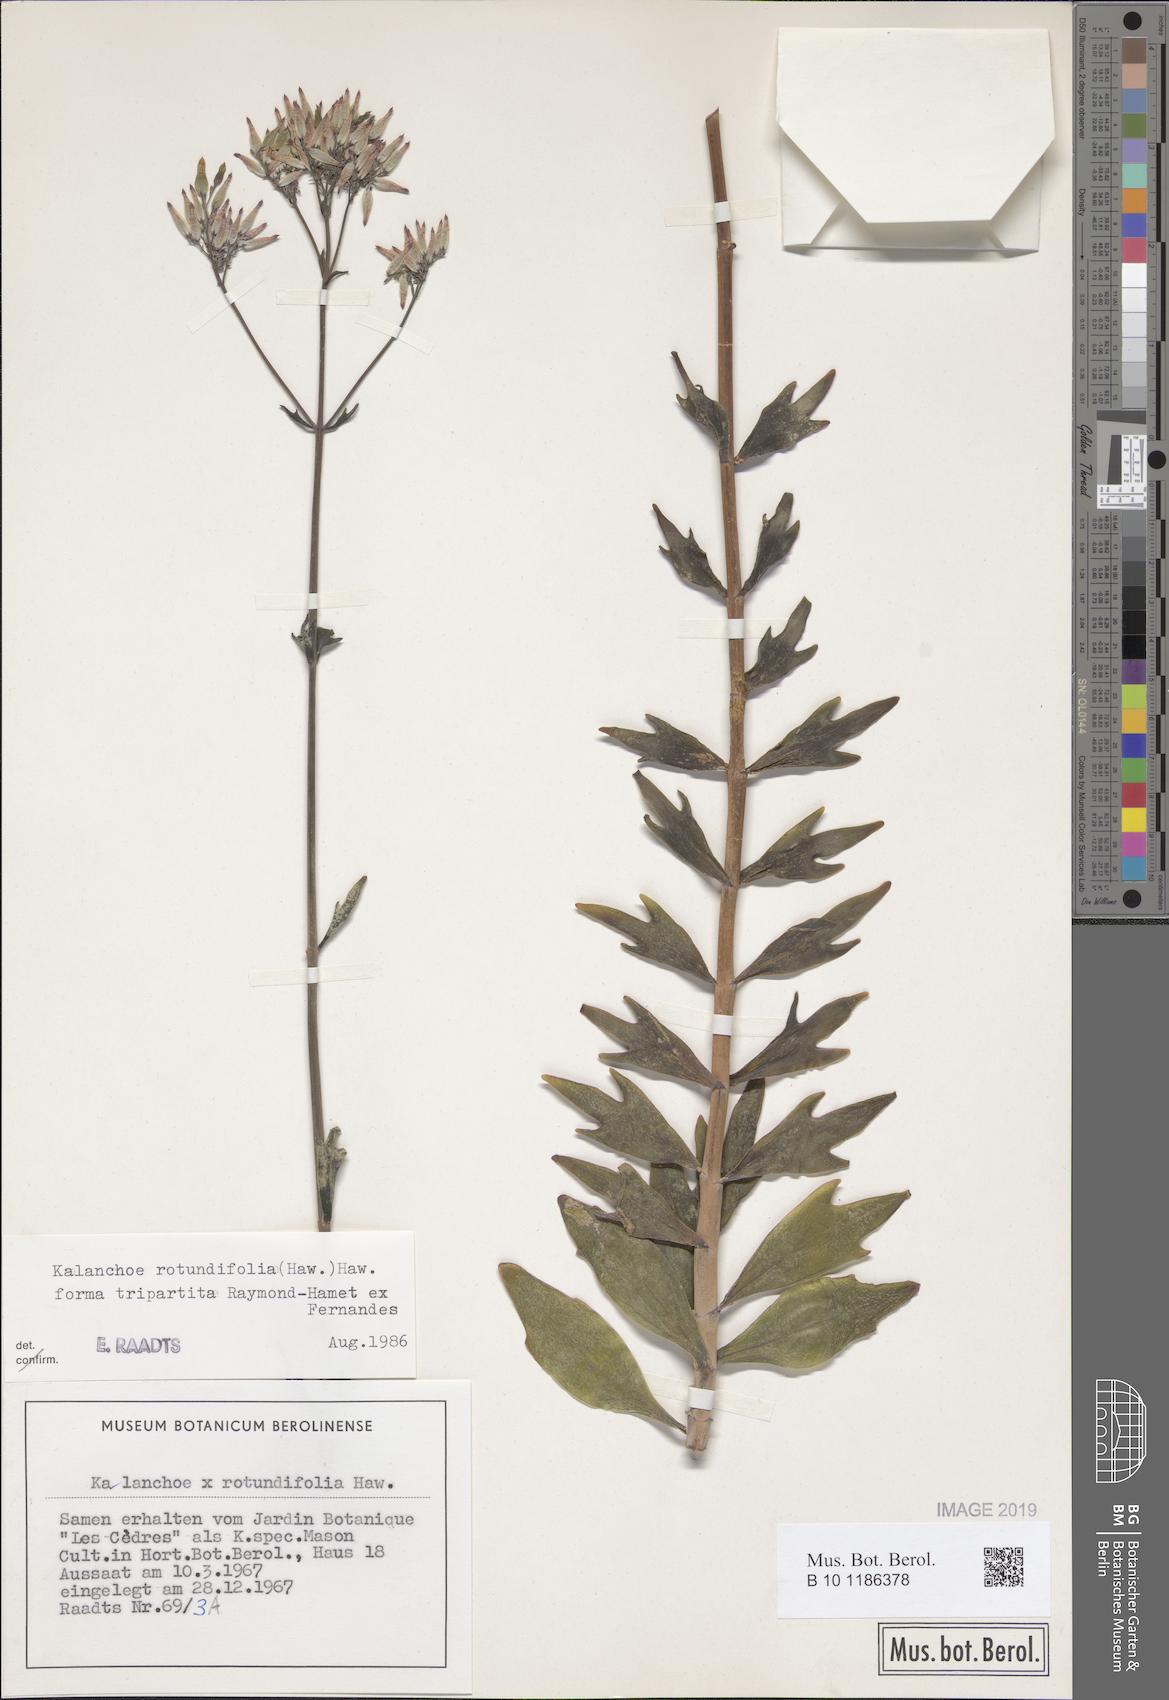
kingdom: Plantae
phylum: Tracheophyta
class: Magnoliopsida
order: Saxifragales
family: Crassulaceae
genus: Kalanchoe
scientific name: Kalanchoe rotundifolia
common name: Common kalanchoe
